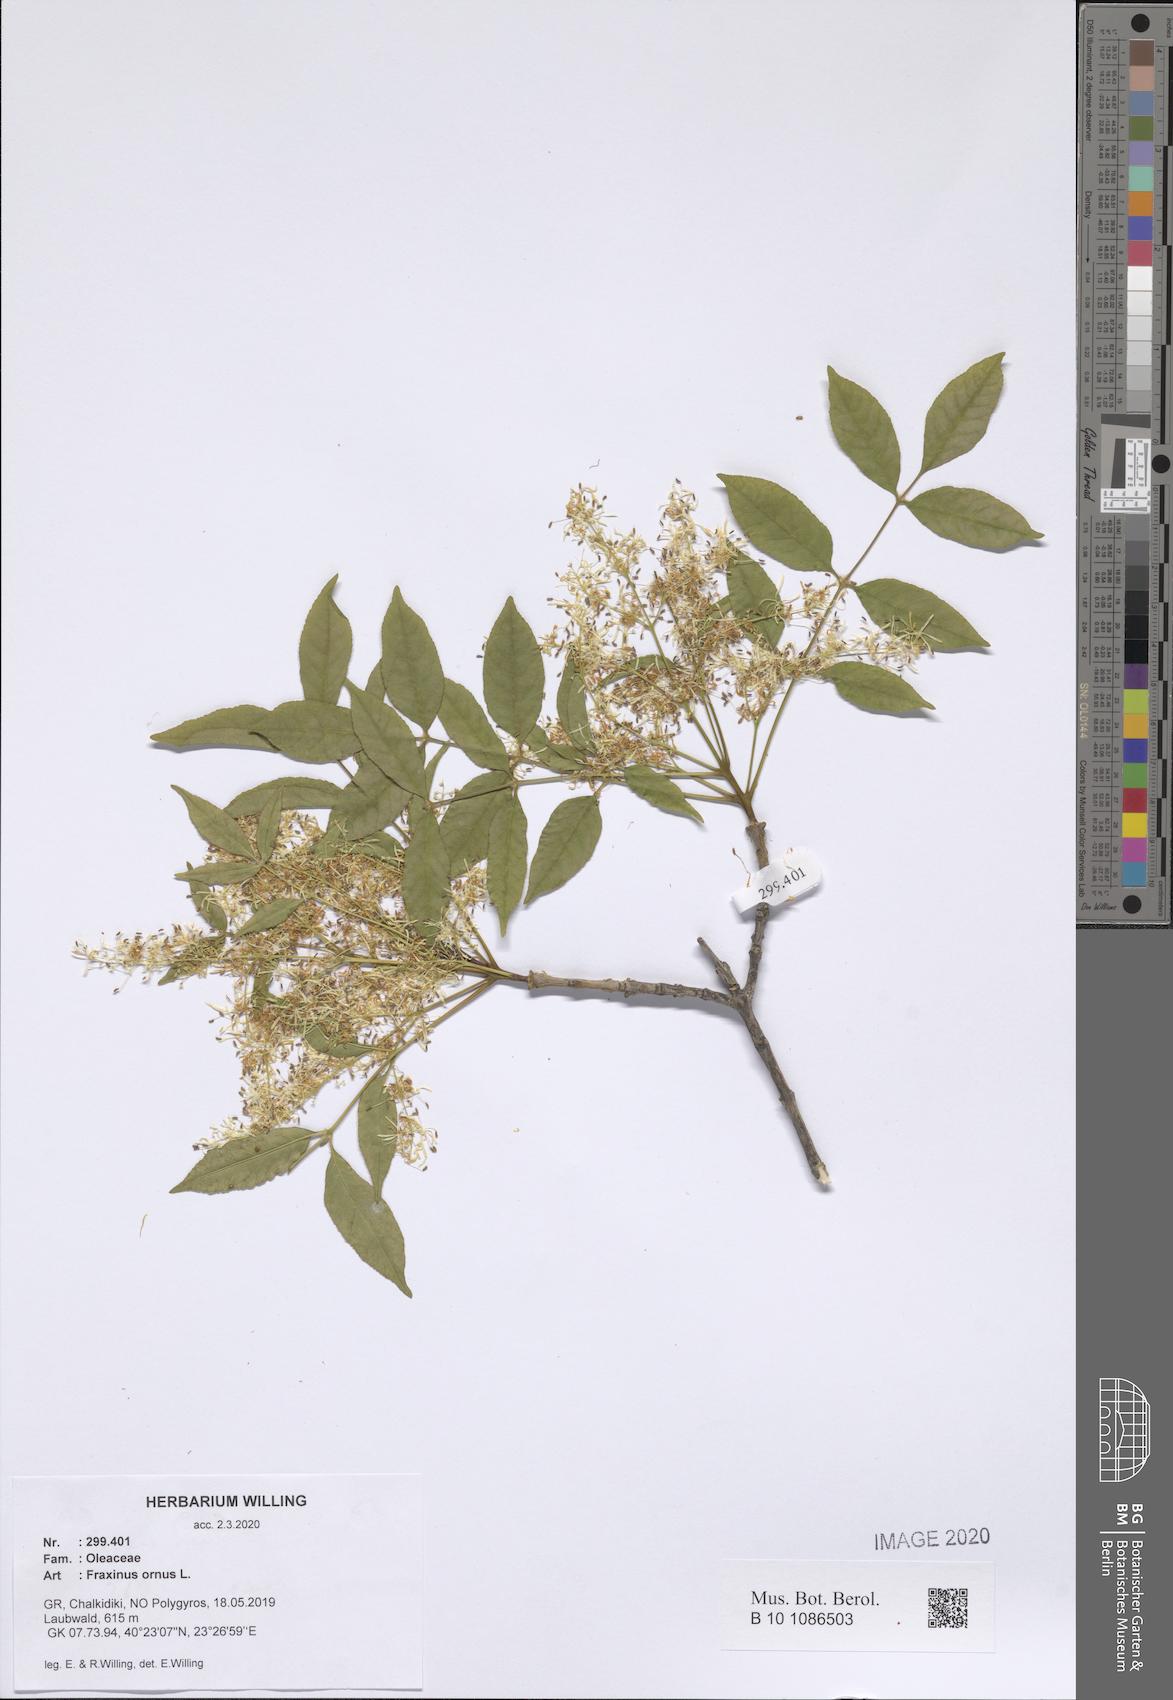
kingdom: Plantae
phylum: Tracheophyta
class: Magnoliopsida
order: Lamiales
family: Oleaceae
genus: Fraxinus
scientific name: Fraxinus ornus
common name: Manna ash
